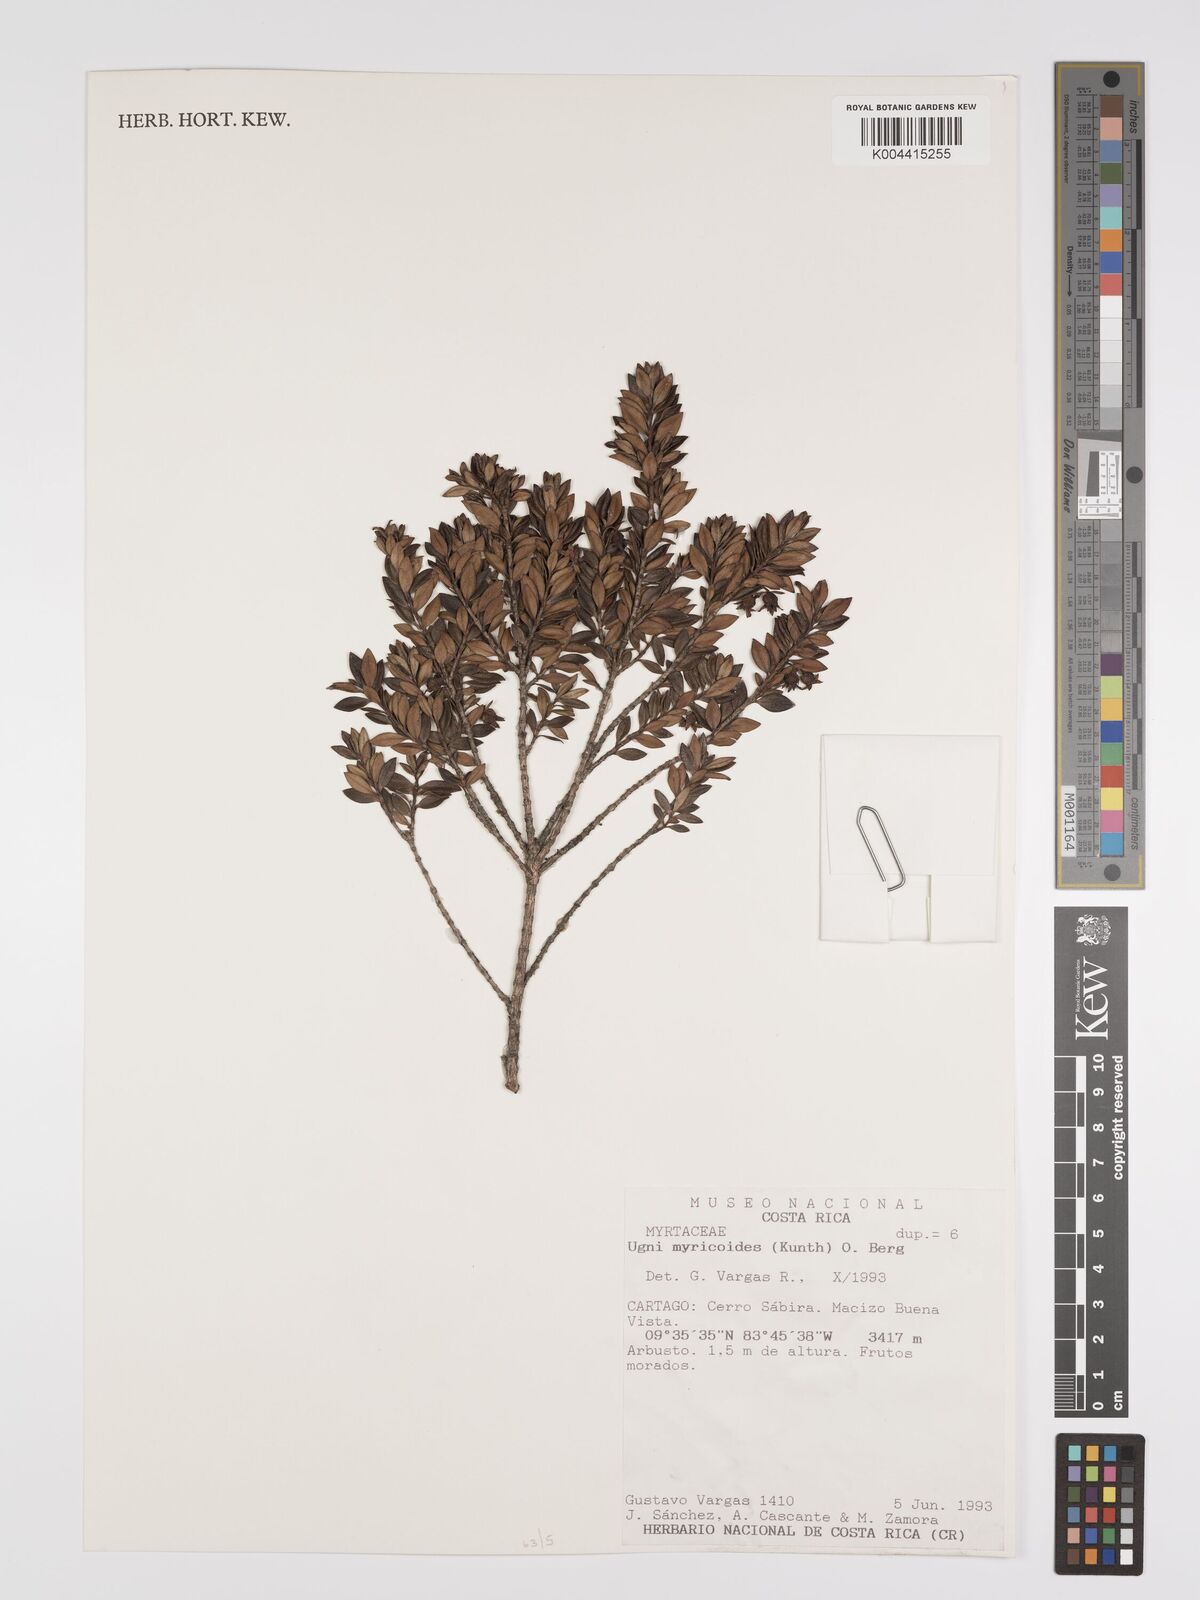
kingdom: Plantae
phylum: Tracheophyta
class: Magnoliopsida
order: Myrtales
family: Myrtaceae
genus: Ugni
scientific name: Ugni myricoides
